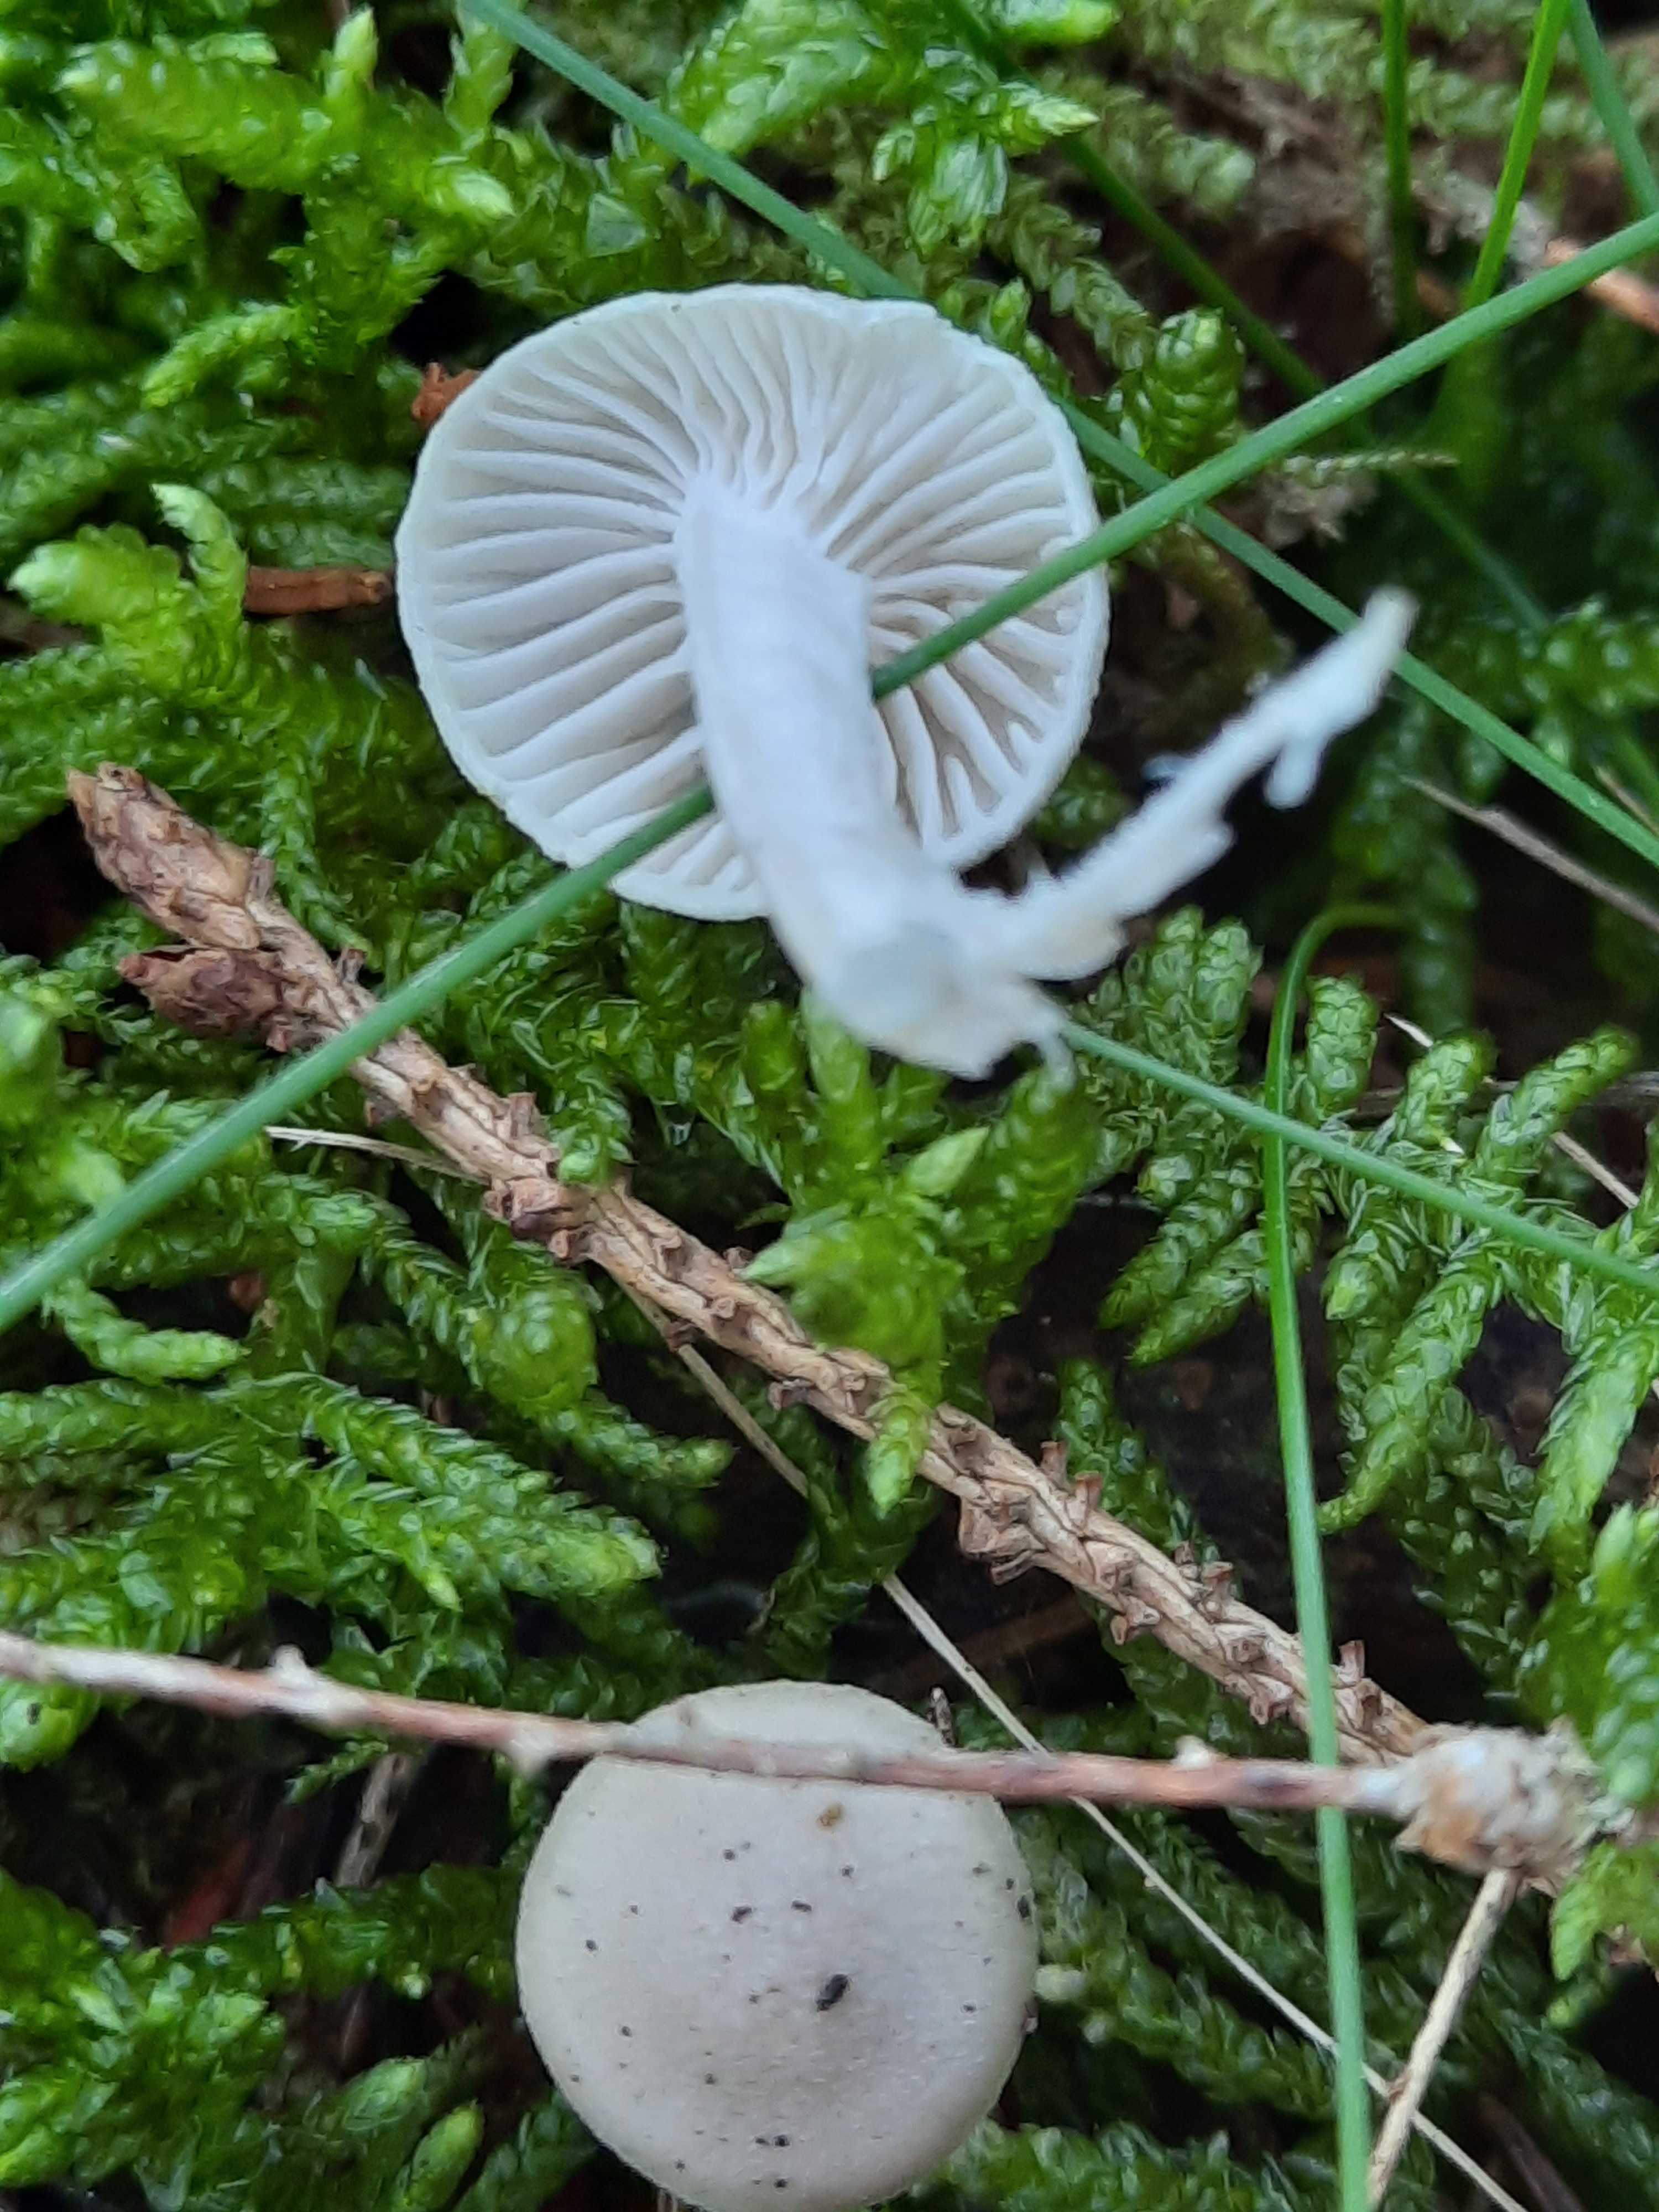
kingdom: Fungi
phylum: Basidiomycota
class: Agaricomycetes
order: Agaricales
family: Hygrophoraceae
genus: Hygrophorus
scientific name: Hygrophorus exiguus
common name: spinkel sneglehat
